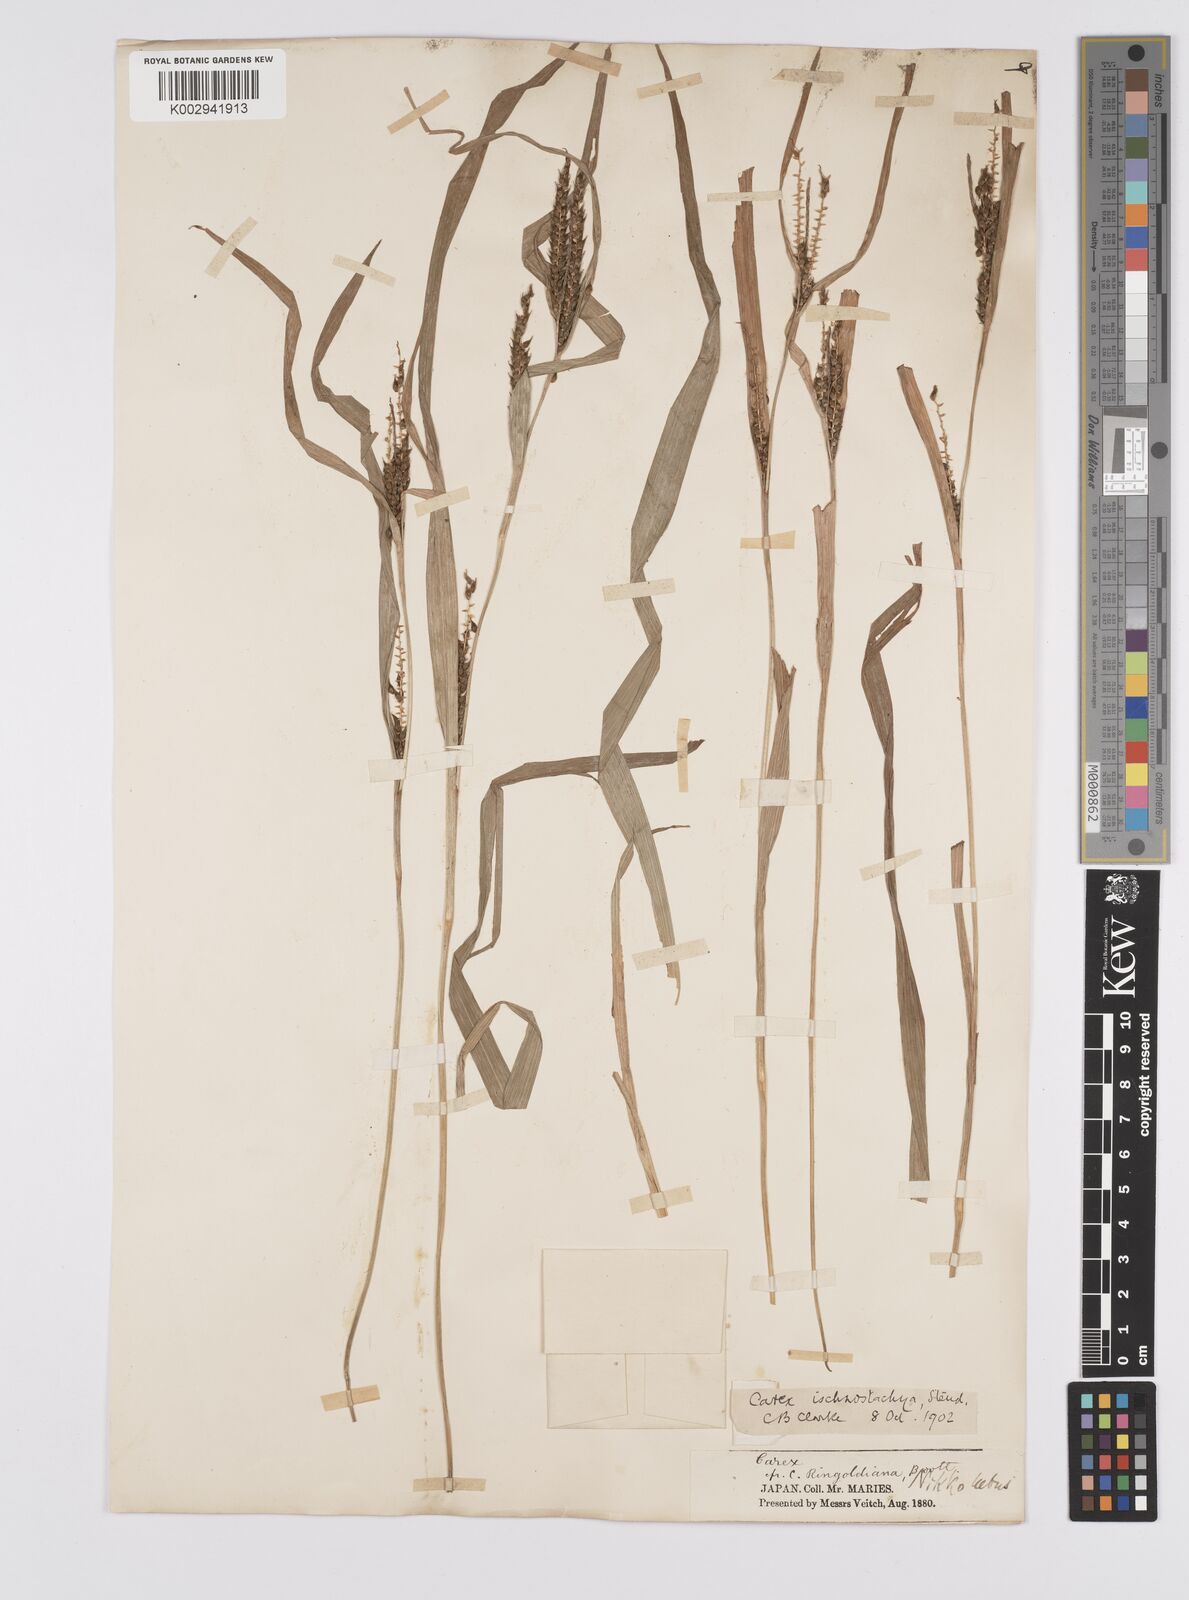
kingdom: Plantae
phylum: Tracheophyta
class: Liliopsida
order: Poales
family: Cyperaceae
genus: Carex
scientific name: Carex ischnostachya
